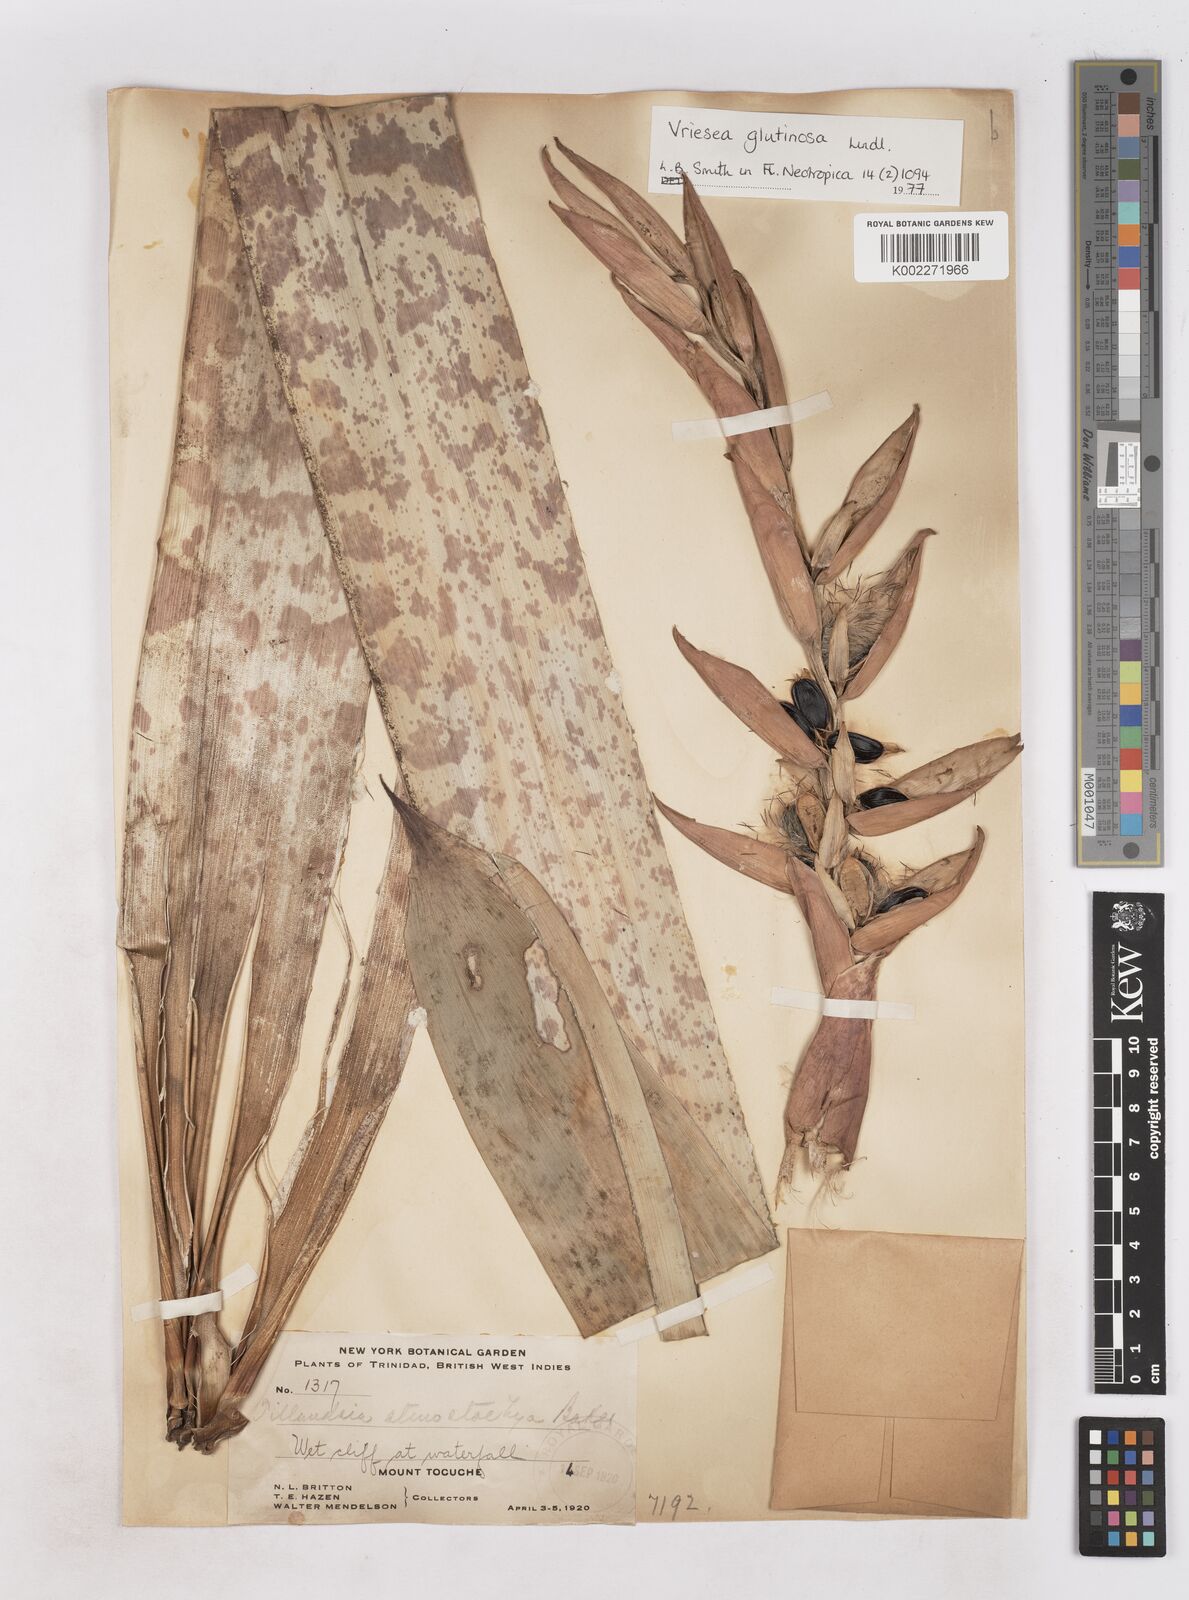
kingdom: Plantae
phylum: Tracheophyta
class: Liliopsida
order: Poales
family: Bromeliaceae
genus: Vriesea
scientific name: Vriesea
